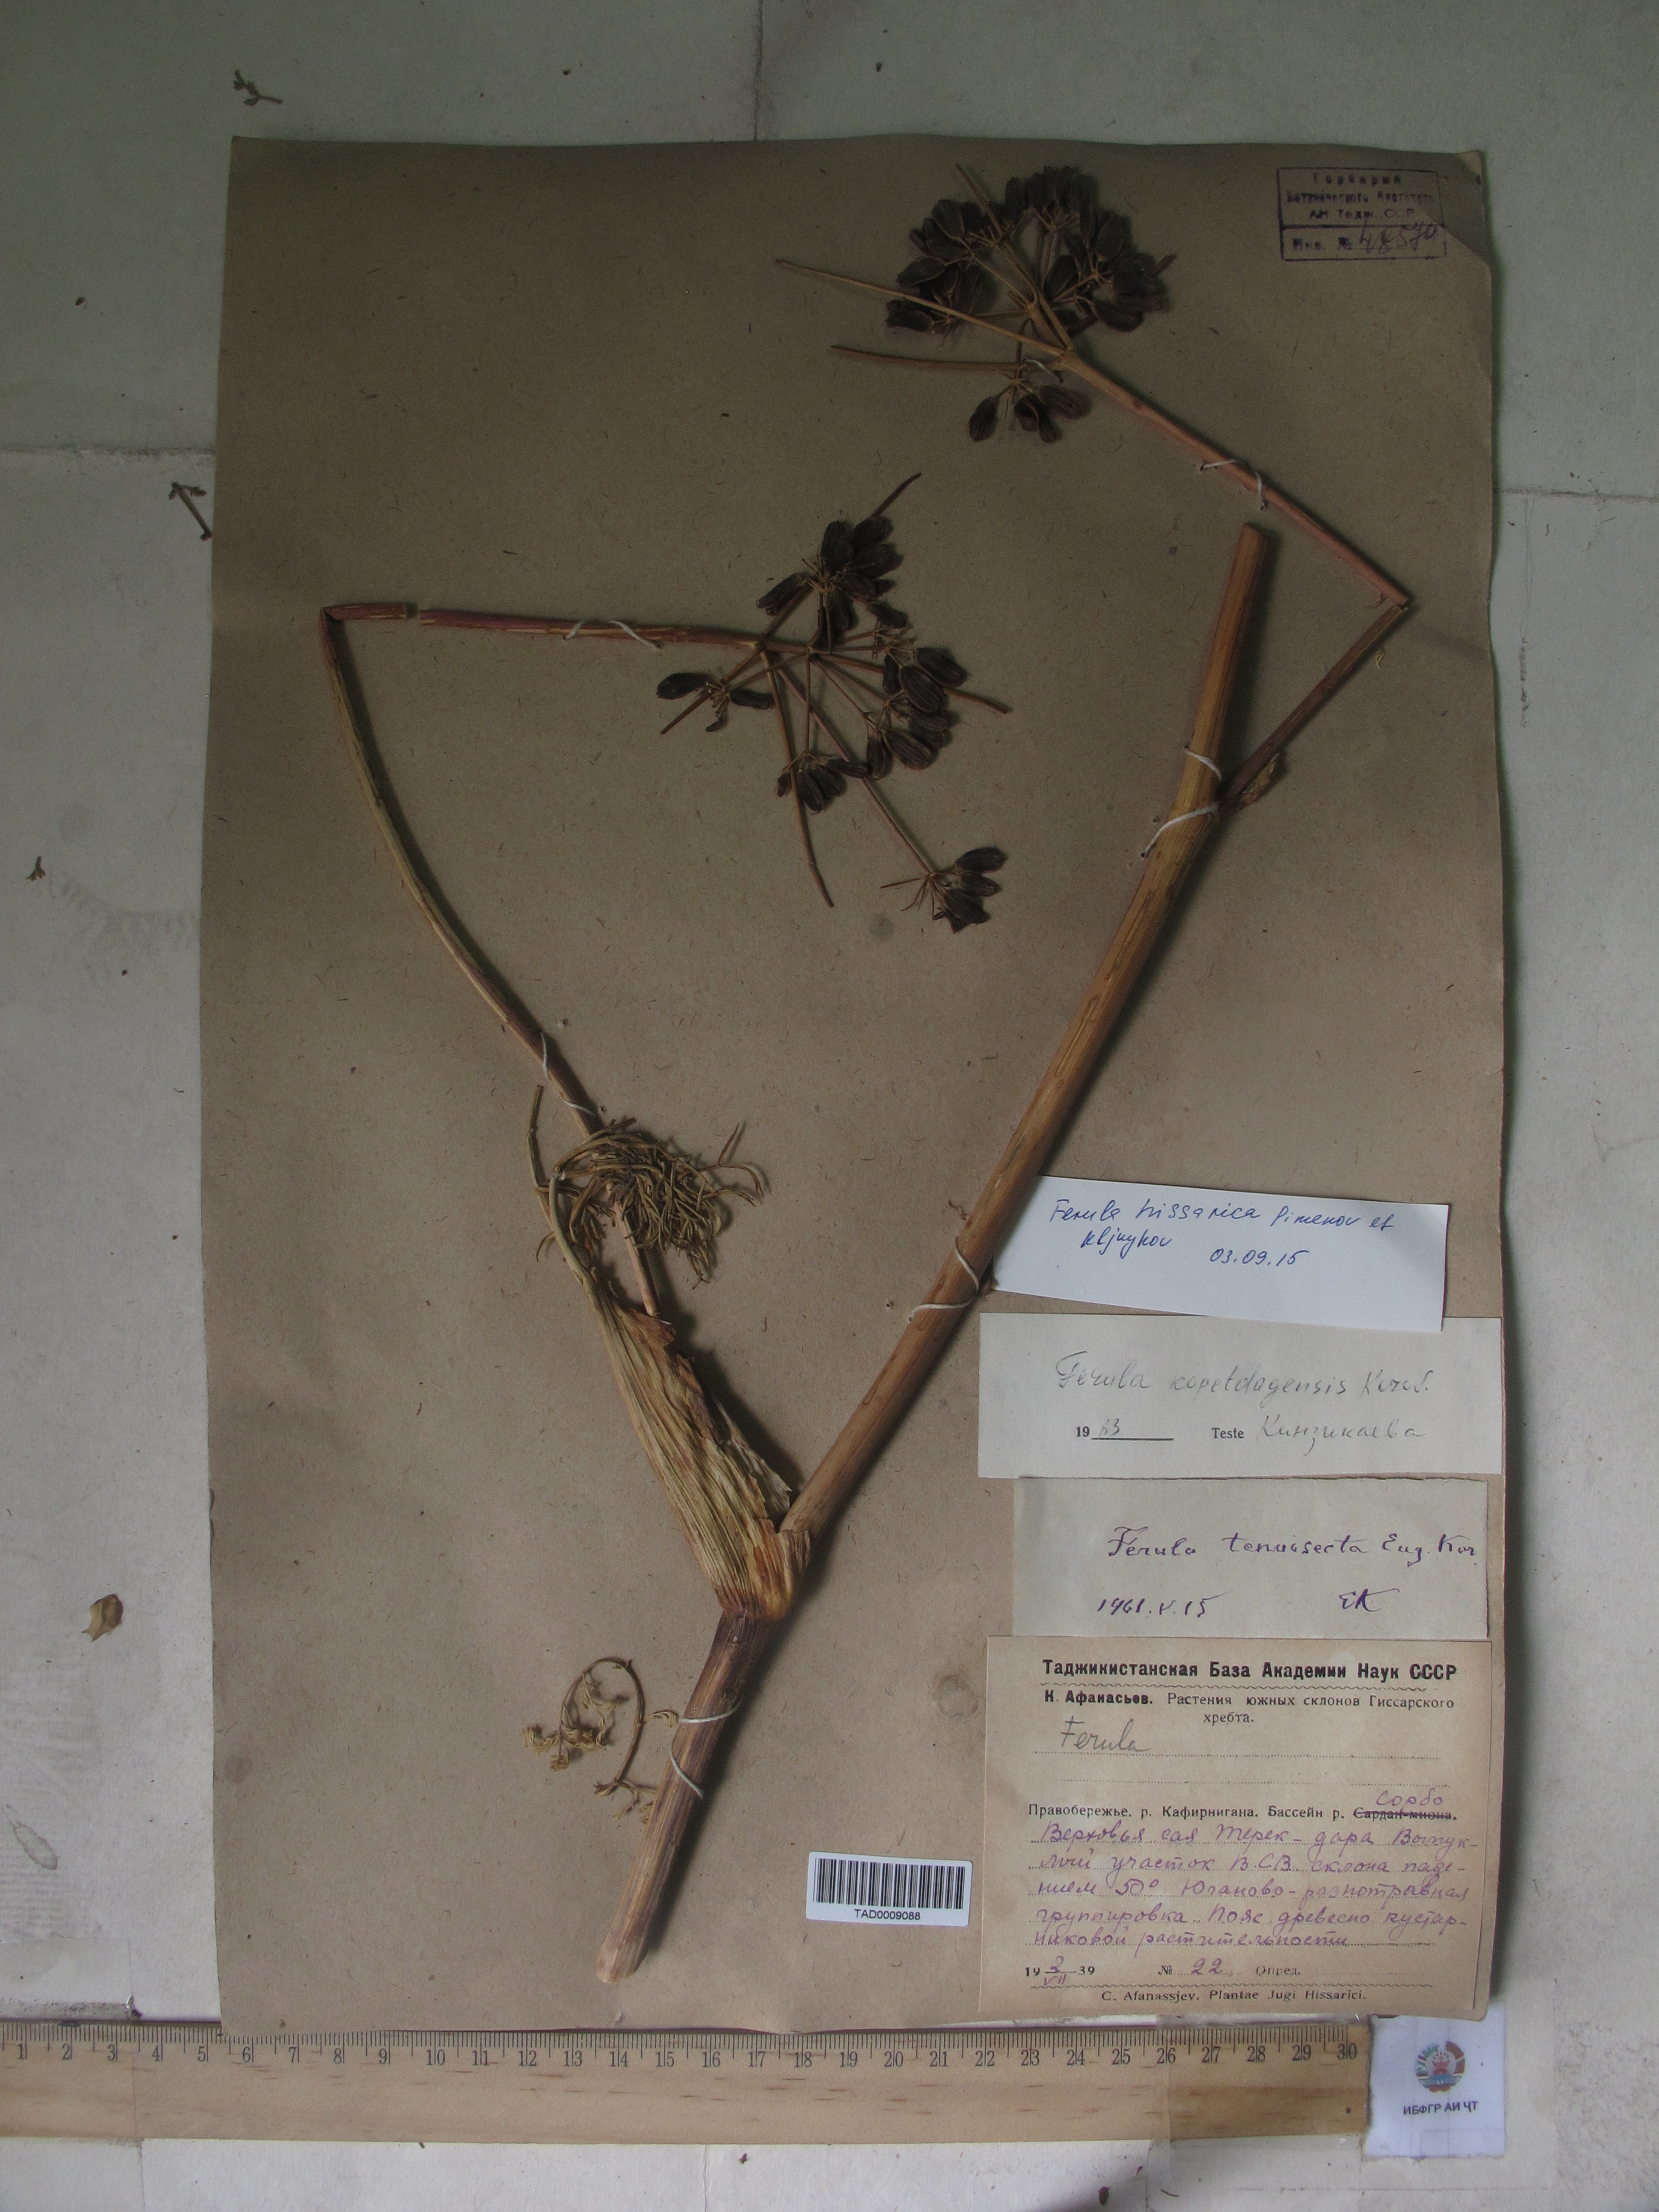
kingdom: Plantae
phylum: Tracheophyta
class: Magnoliopsida
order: Apiales
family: Apiaceae
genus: Ferula
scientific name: Ferula hissarica
